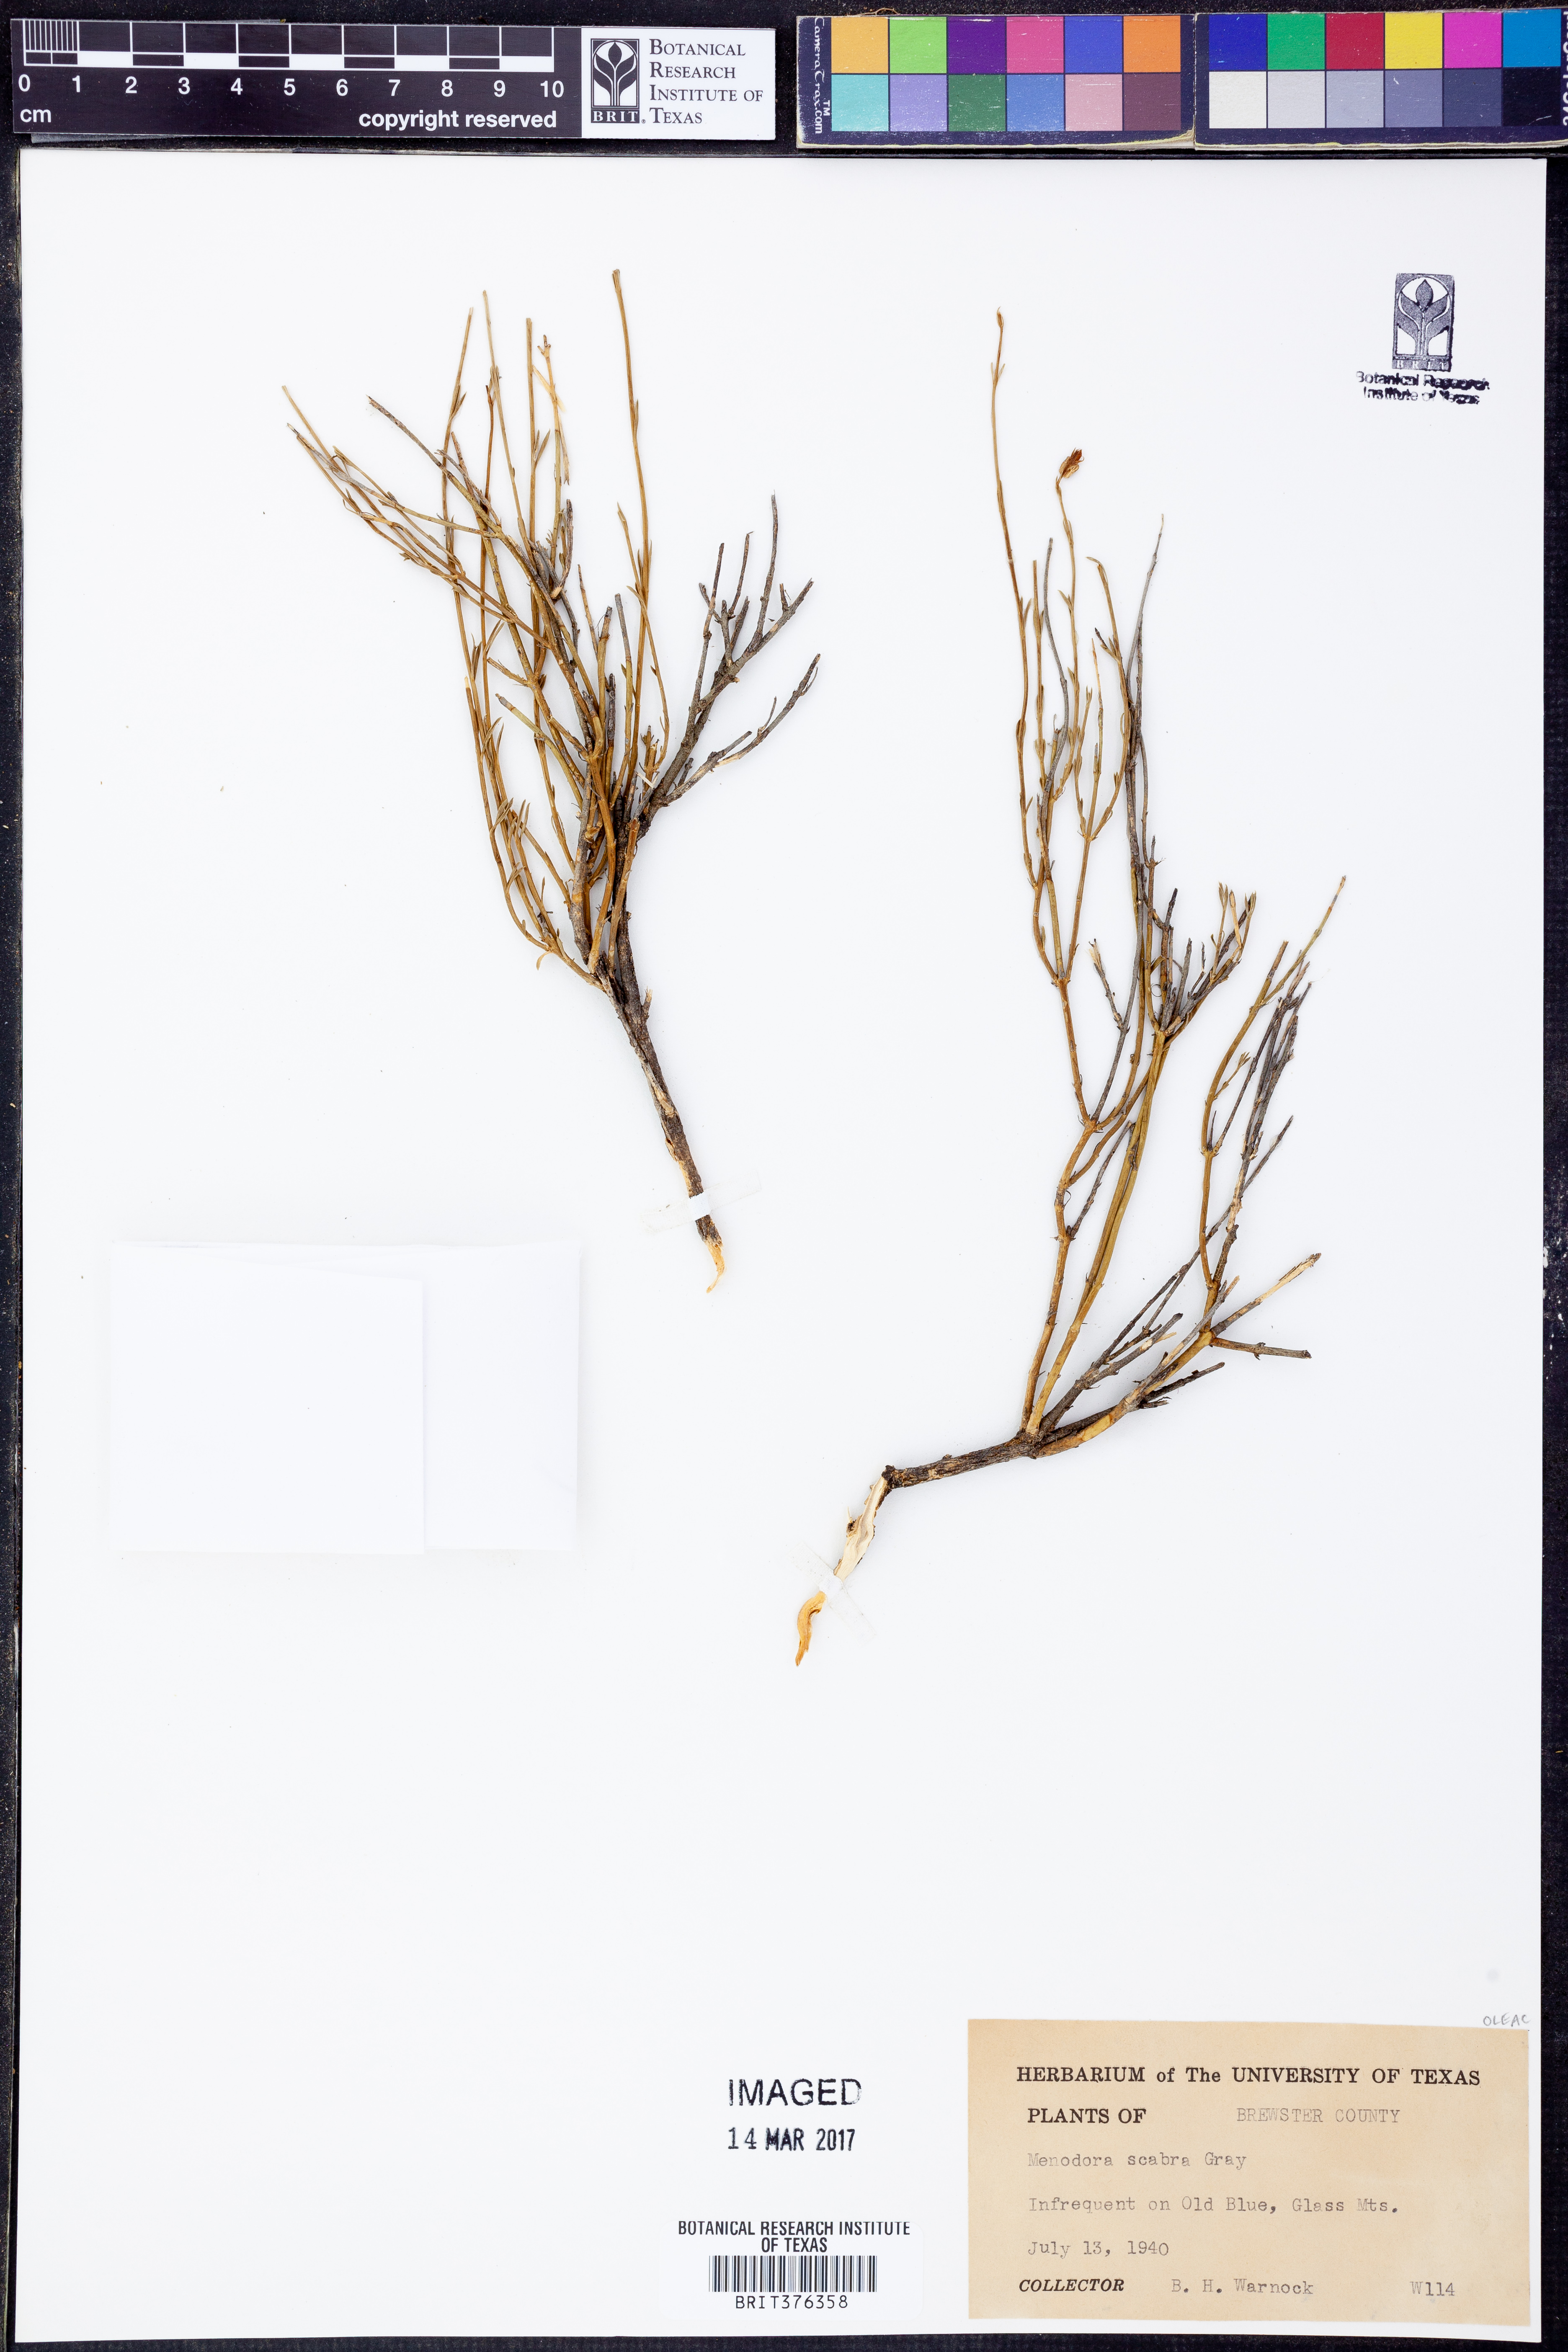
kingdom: Plantae
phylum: Tracheophyta
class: Magnoliopsida
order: Lamiales
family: Oleaceae
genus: Menodora
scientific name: Menodora scabra
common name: Rough menodora
